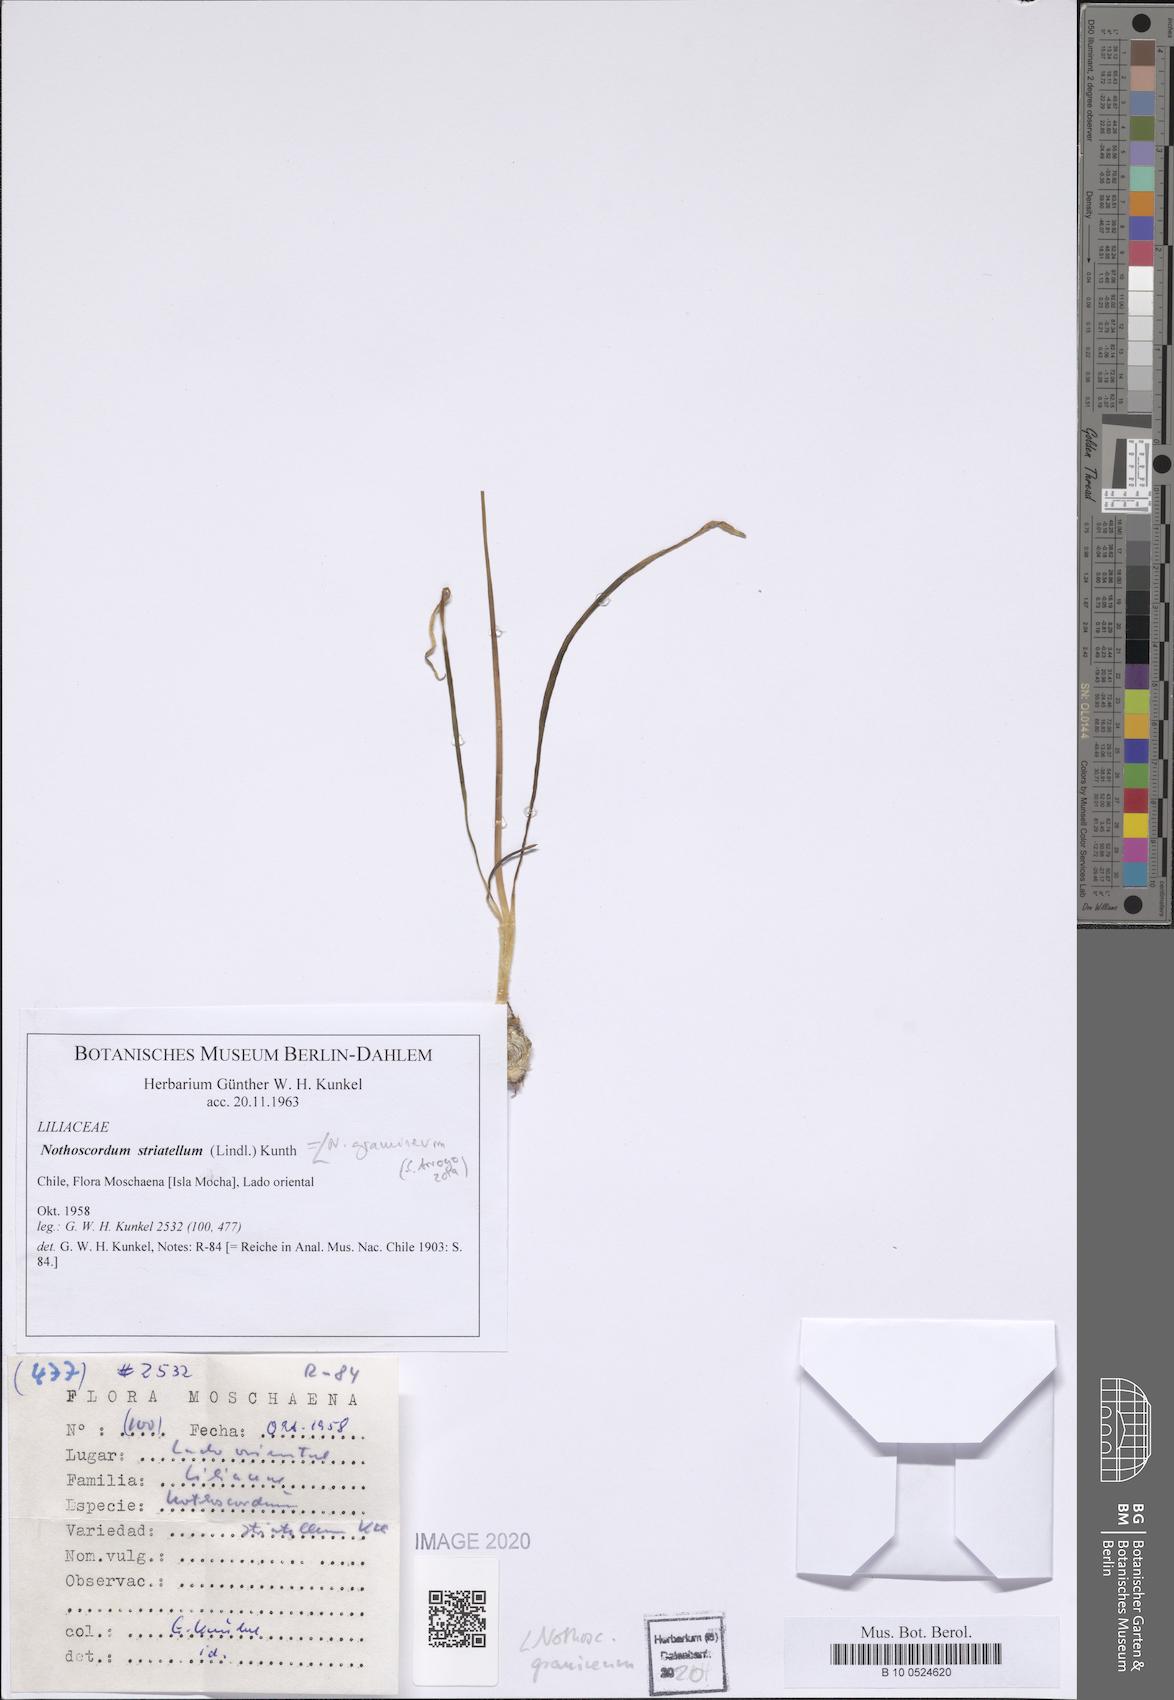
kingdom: Plantae
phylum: Tracheophyta
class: Liliopsida
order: Asparagales
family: Amaryllidaceae
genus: Nothoscordum
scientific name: Nothoscordum bivalve
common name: Crow-poison
